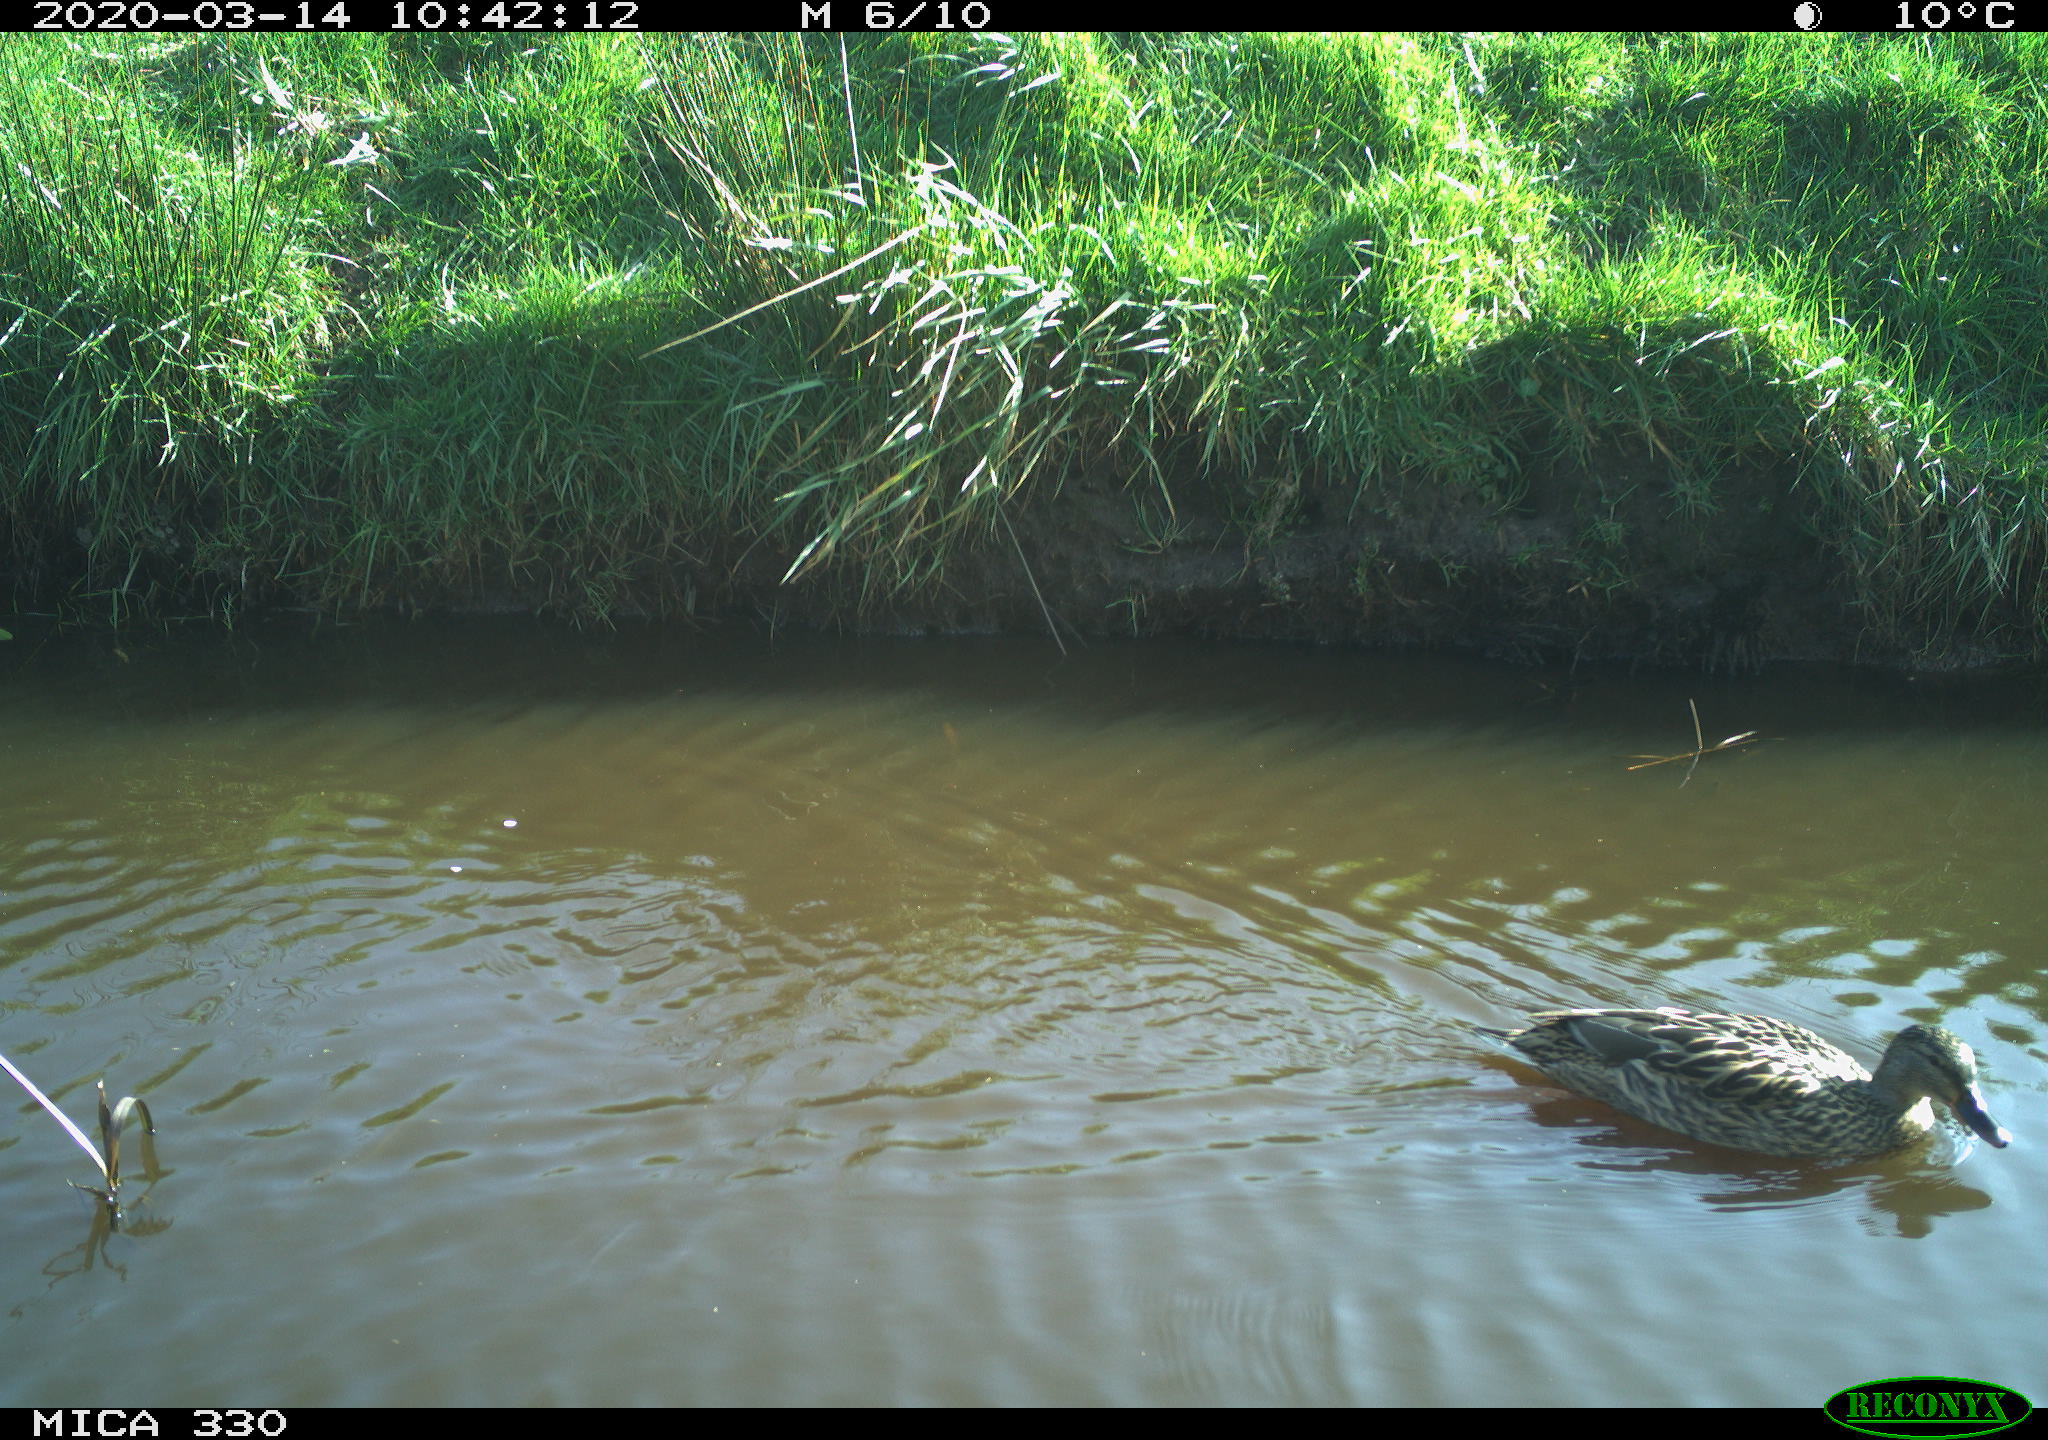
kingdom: Animalia
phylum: Chordata
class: Aves
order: Anseriformes
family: Anatidae
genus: Mareca
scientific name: Mareca strepera
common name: Gadwall
